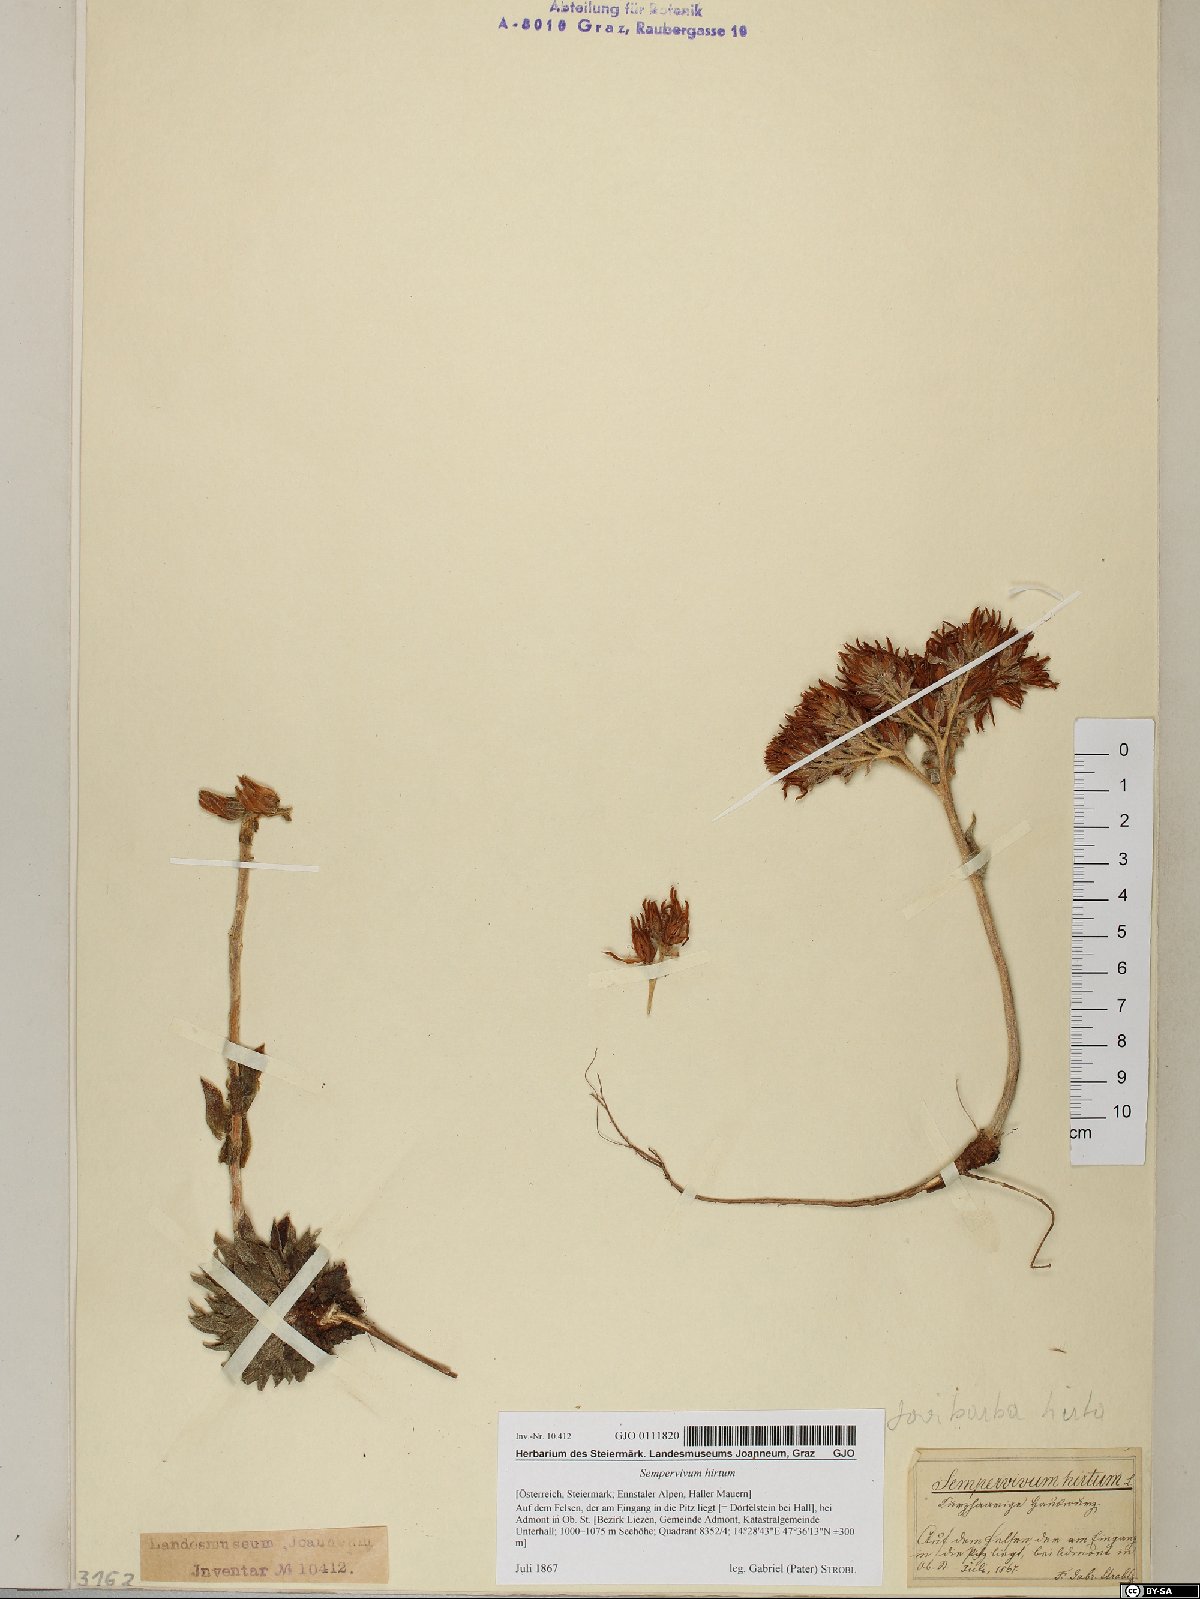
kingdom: Plantae
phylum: Tracheophyta
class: Magnoliopsida
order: Saxifragales
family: Crassulaceae
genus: Sempervivum
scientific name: Sempervivum globiferum
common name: Rolling hen-and-chicks
